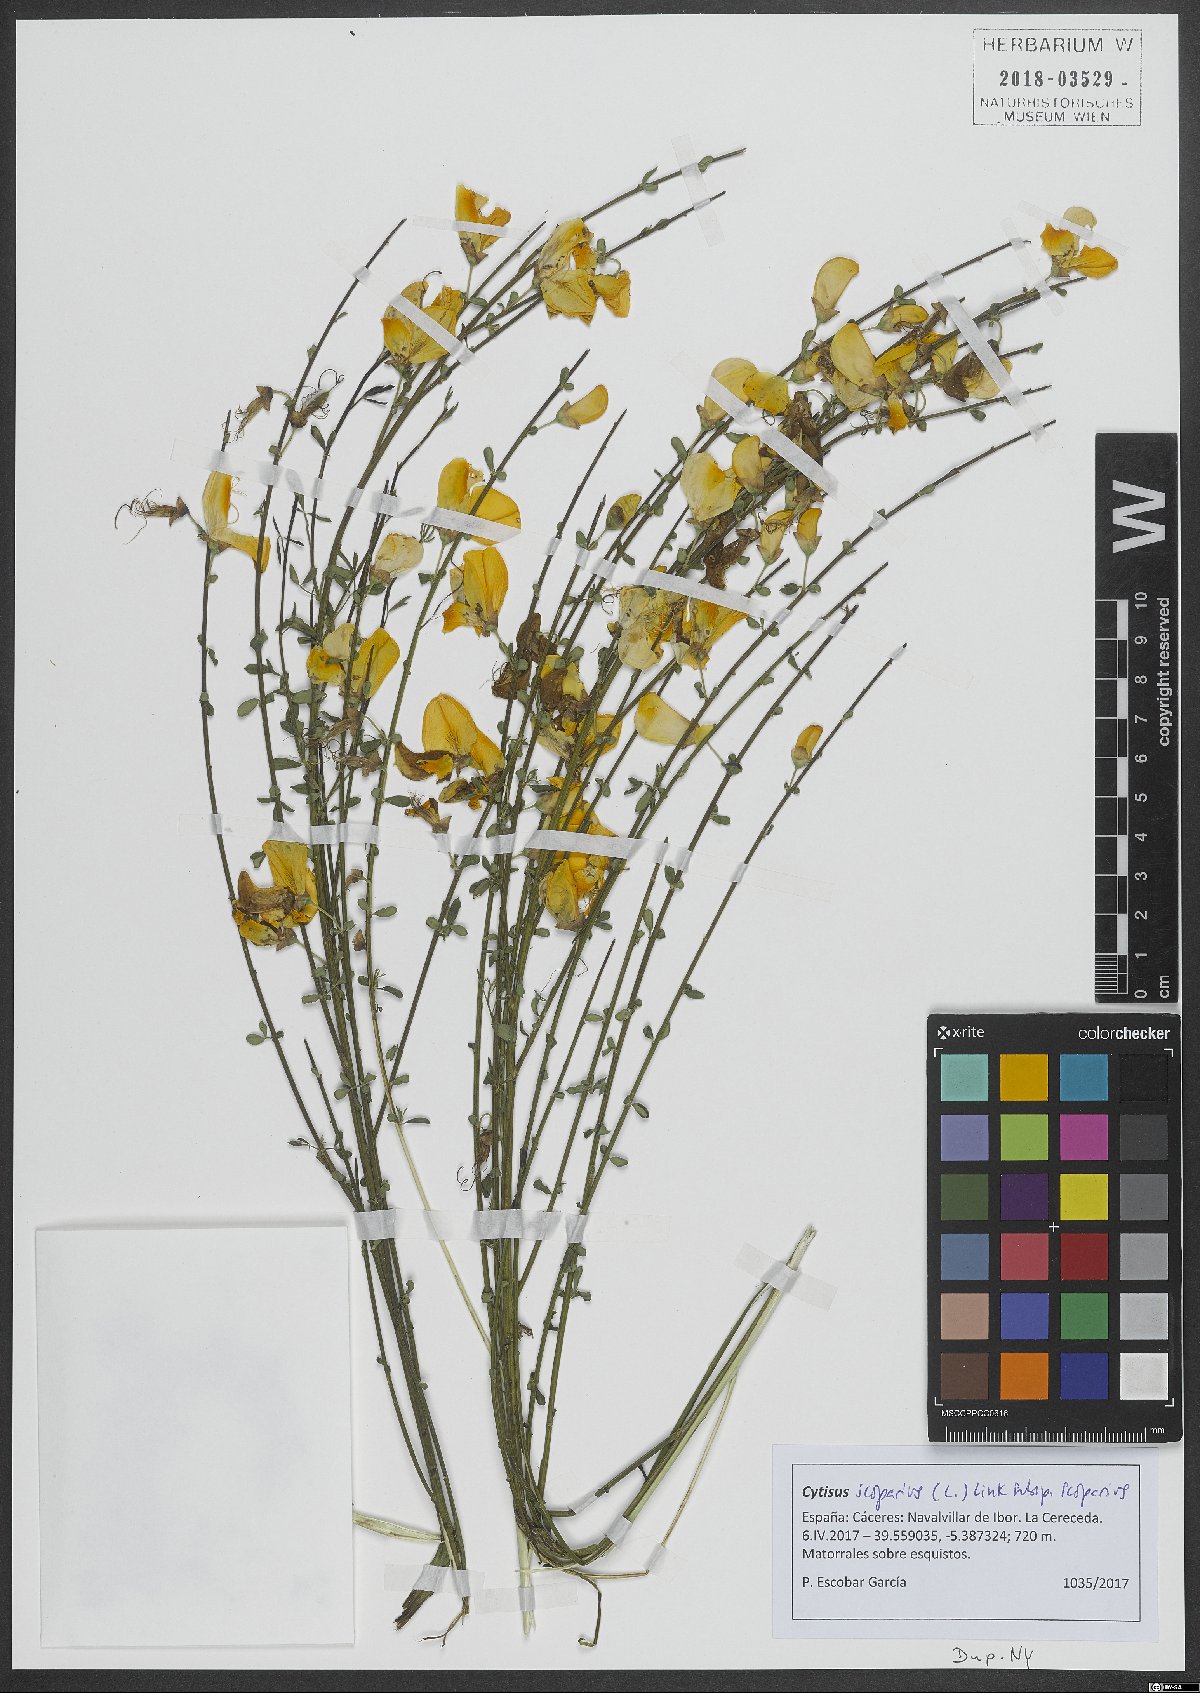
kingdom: Plantae
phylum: Tracheophyta
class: Magnoliopsida
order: Fabales
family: Fabaceae
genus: Cytisus
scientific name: Cytisus scoparius
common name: Scotch broom
